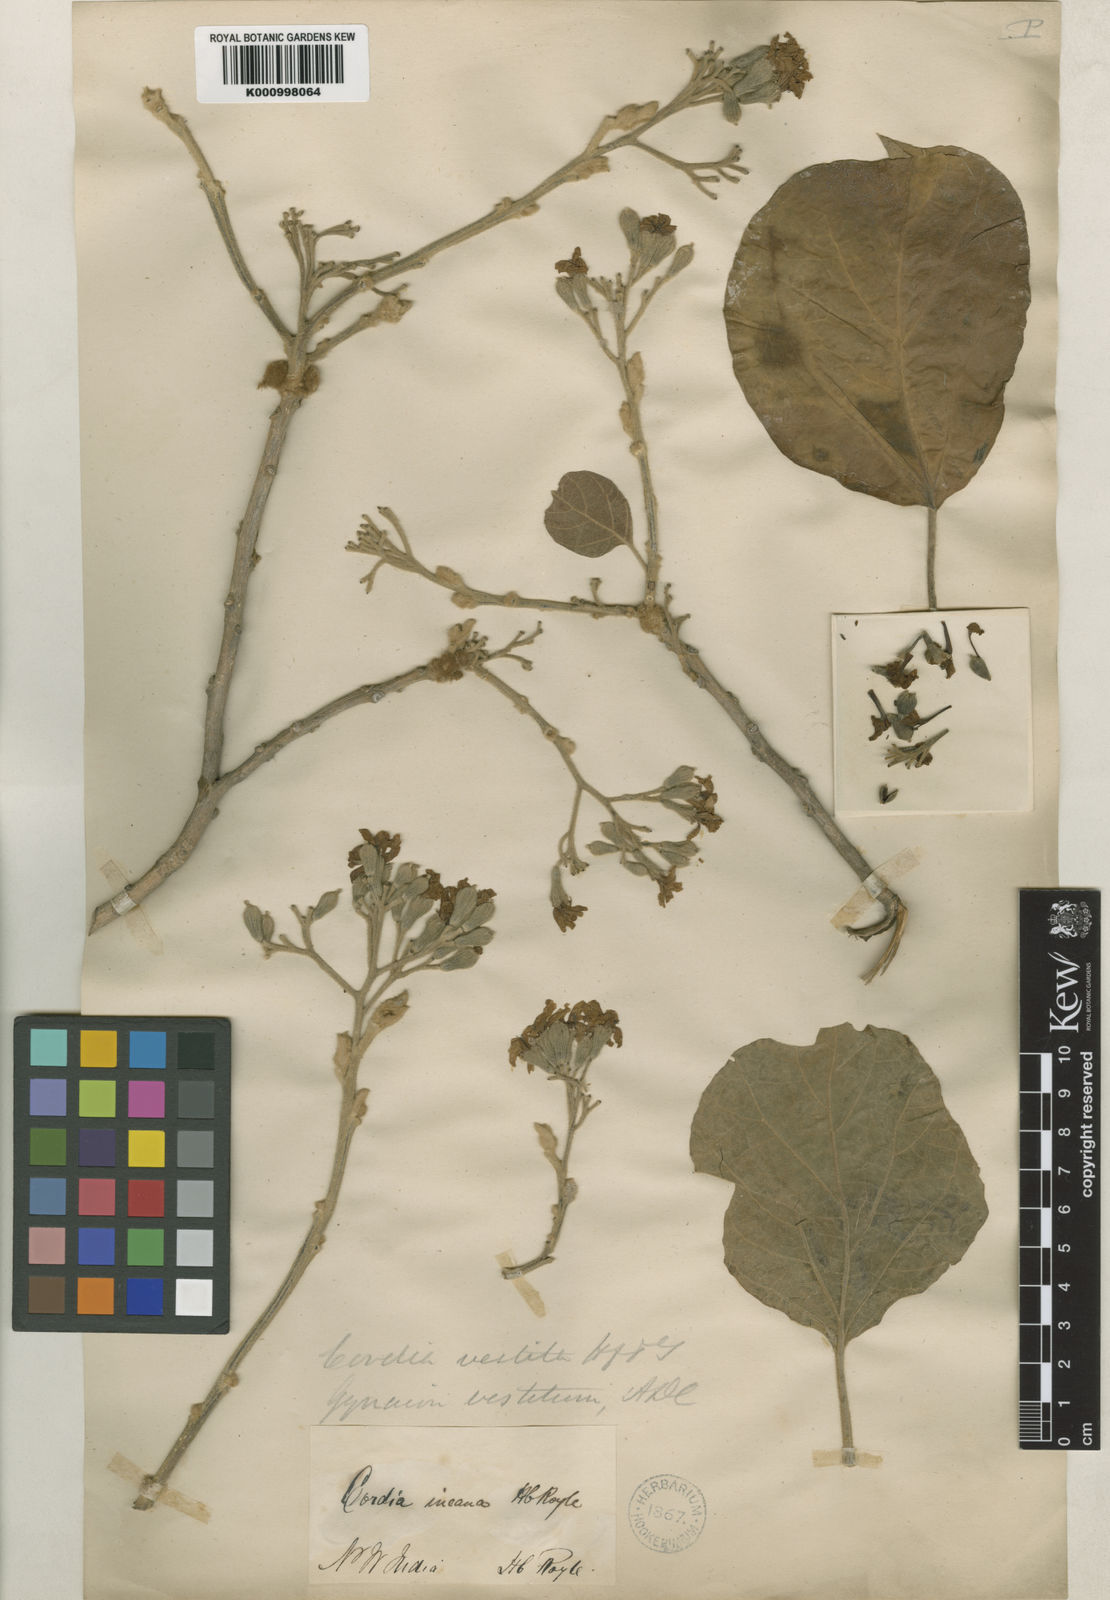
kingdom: Plantae
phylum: Tracheophyta
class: Magnoliopsida
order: Boraginales
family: Cordiaceae
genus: Cordia
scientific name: Cordia vestita
